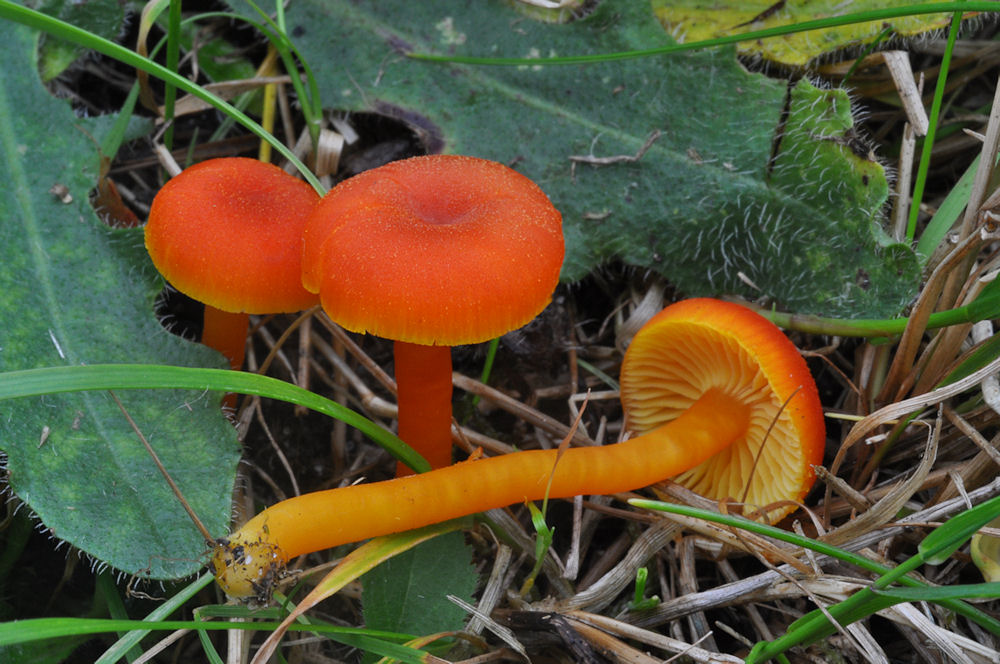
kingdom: Fungi
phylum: Basidiomycota
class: Agaricomycetes
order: Agaricales
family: Hygrophoraceae
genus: Hygrocybe
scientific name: Hygrocybe miniata
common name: mønje-vokshat
